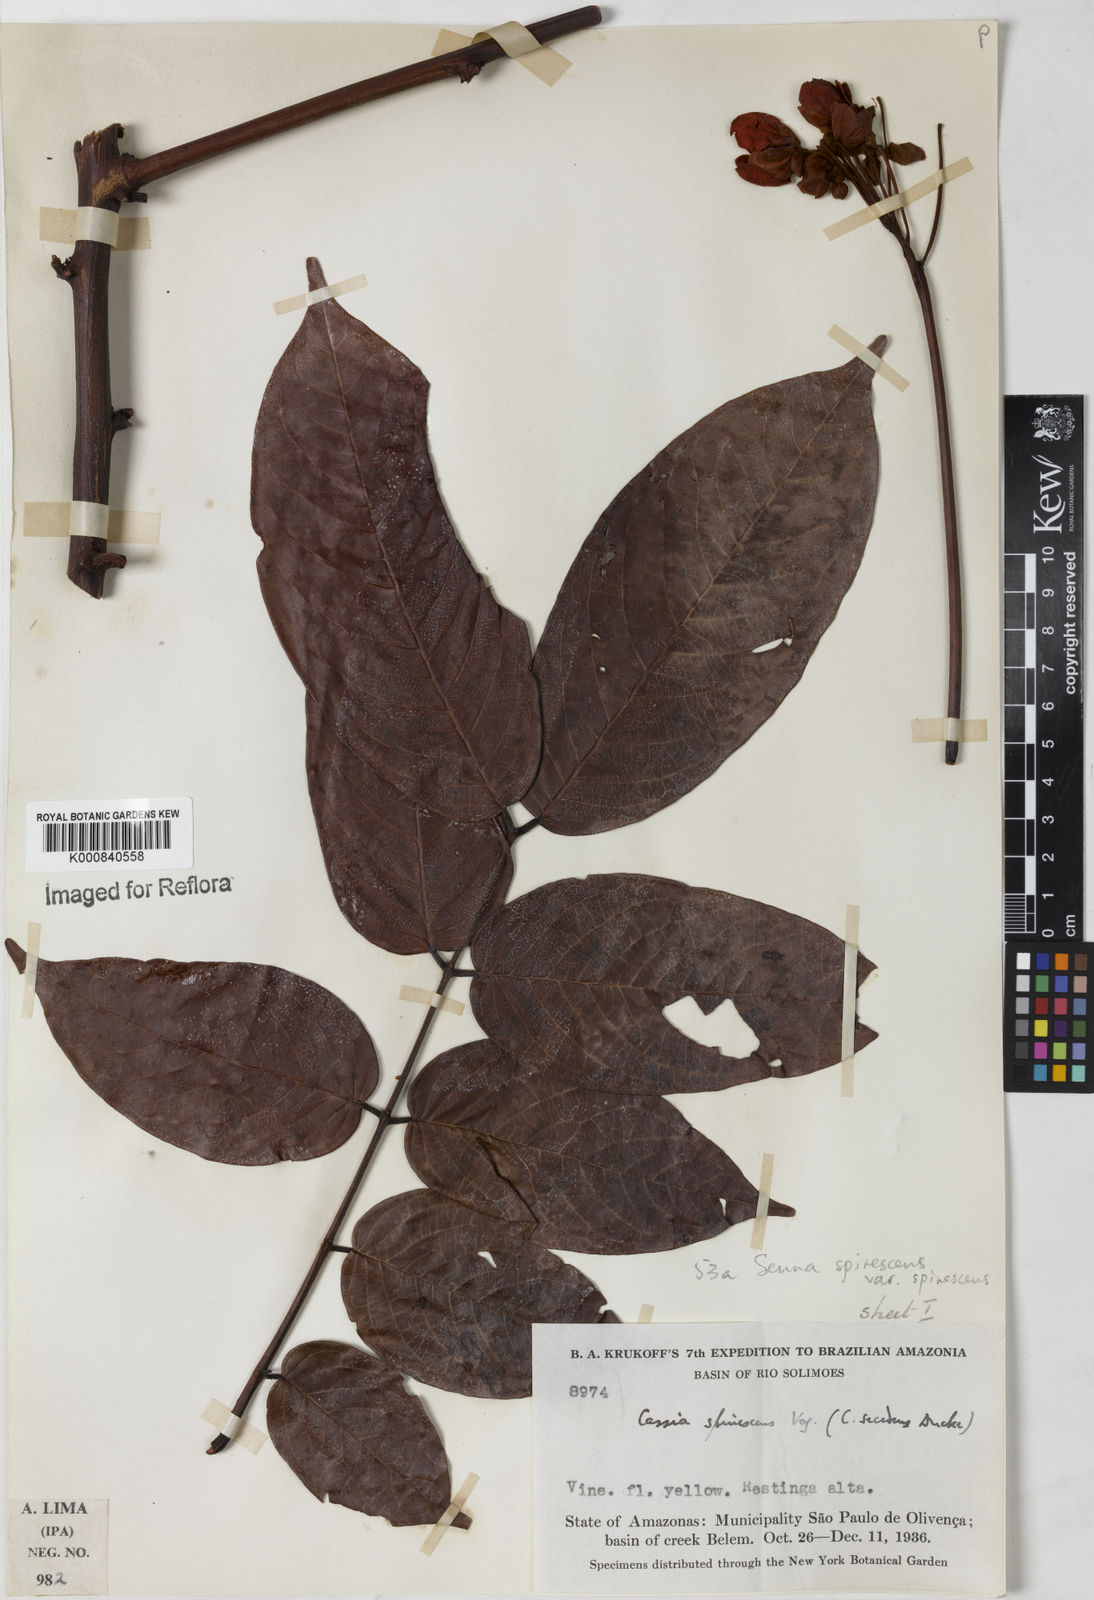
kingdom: Plantae
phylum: Tracheophyta
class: Magnoliopsida
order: Fabales
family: Fabaceae
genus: Senna
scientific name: Senna spinescens
